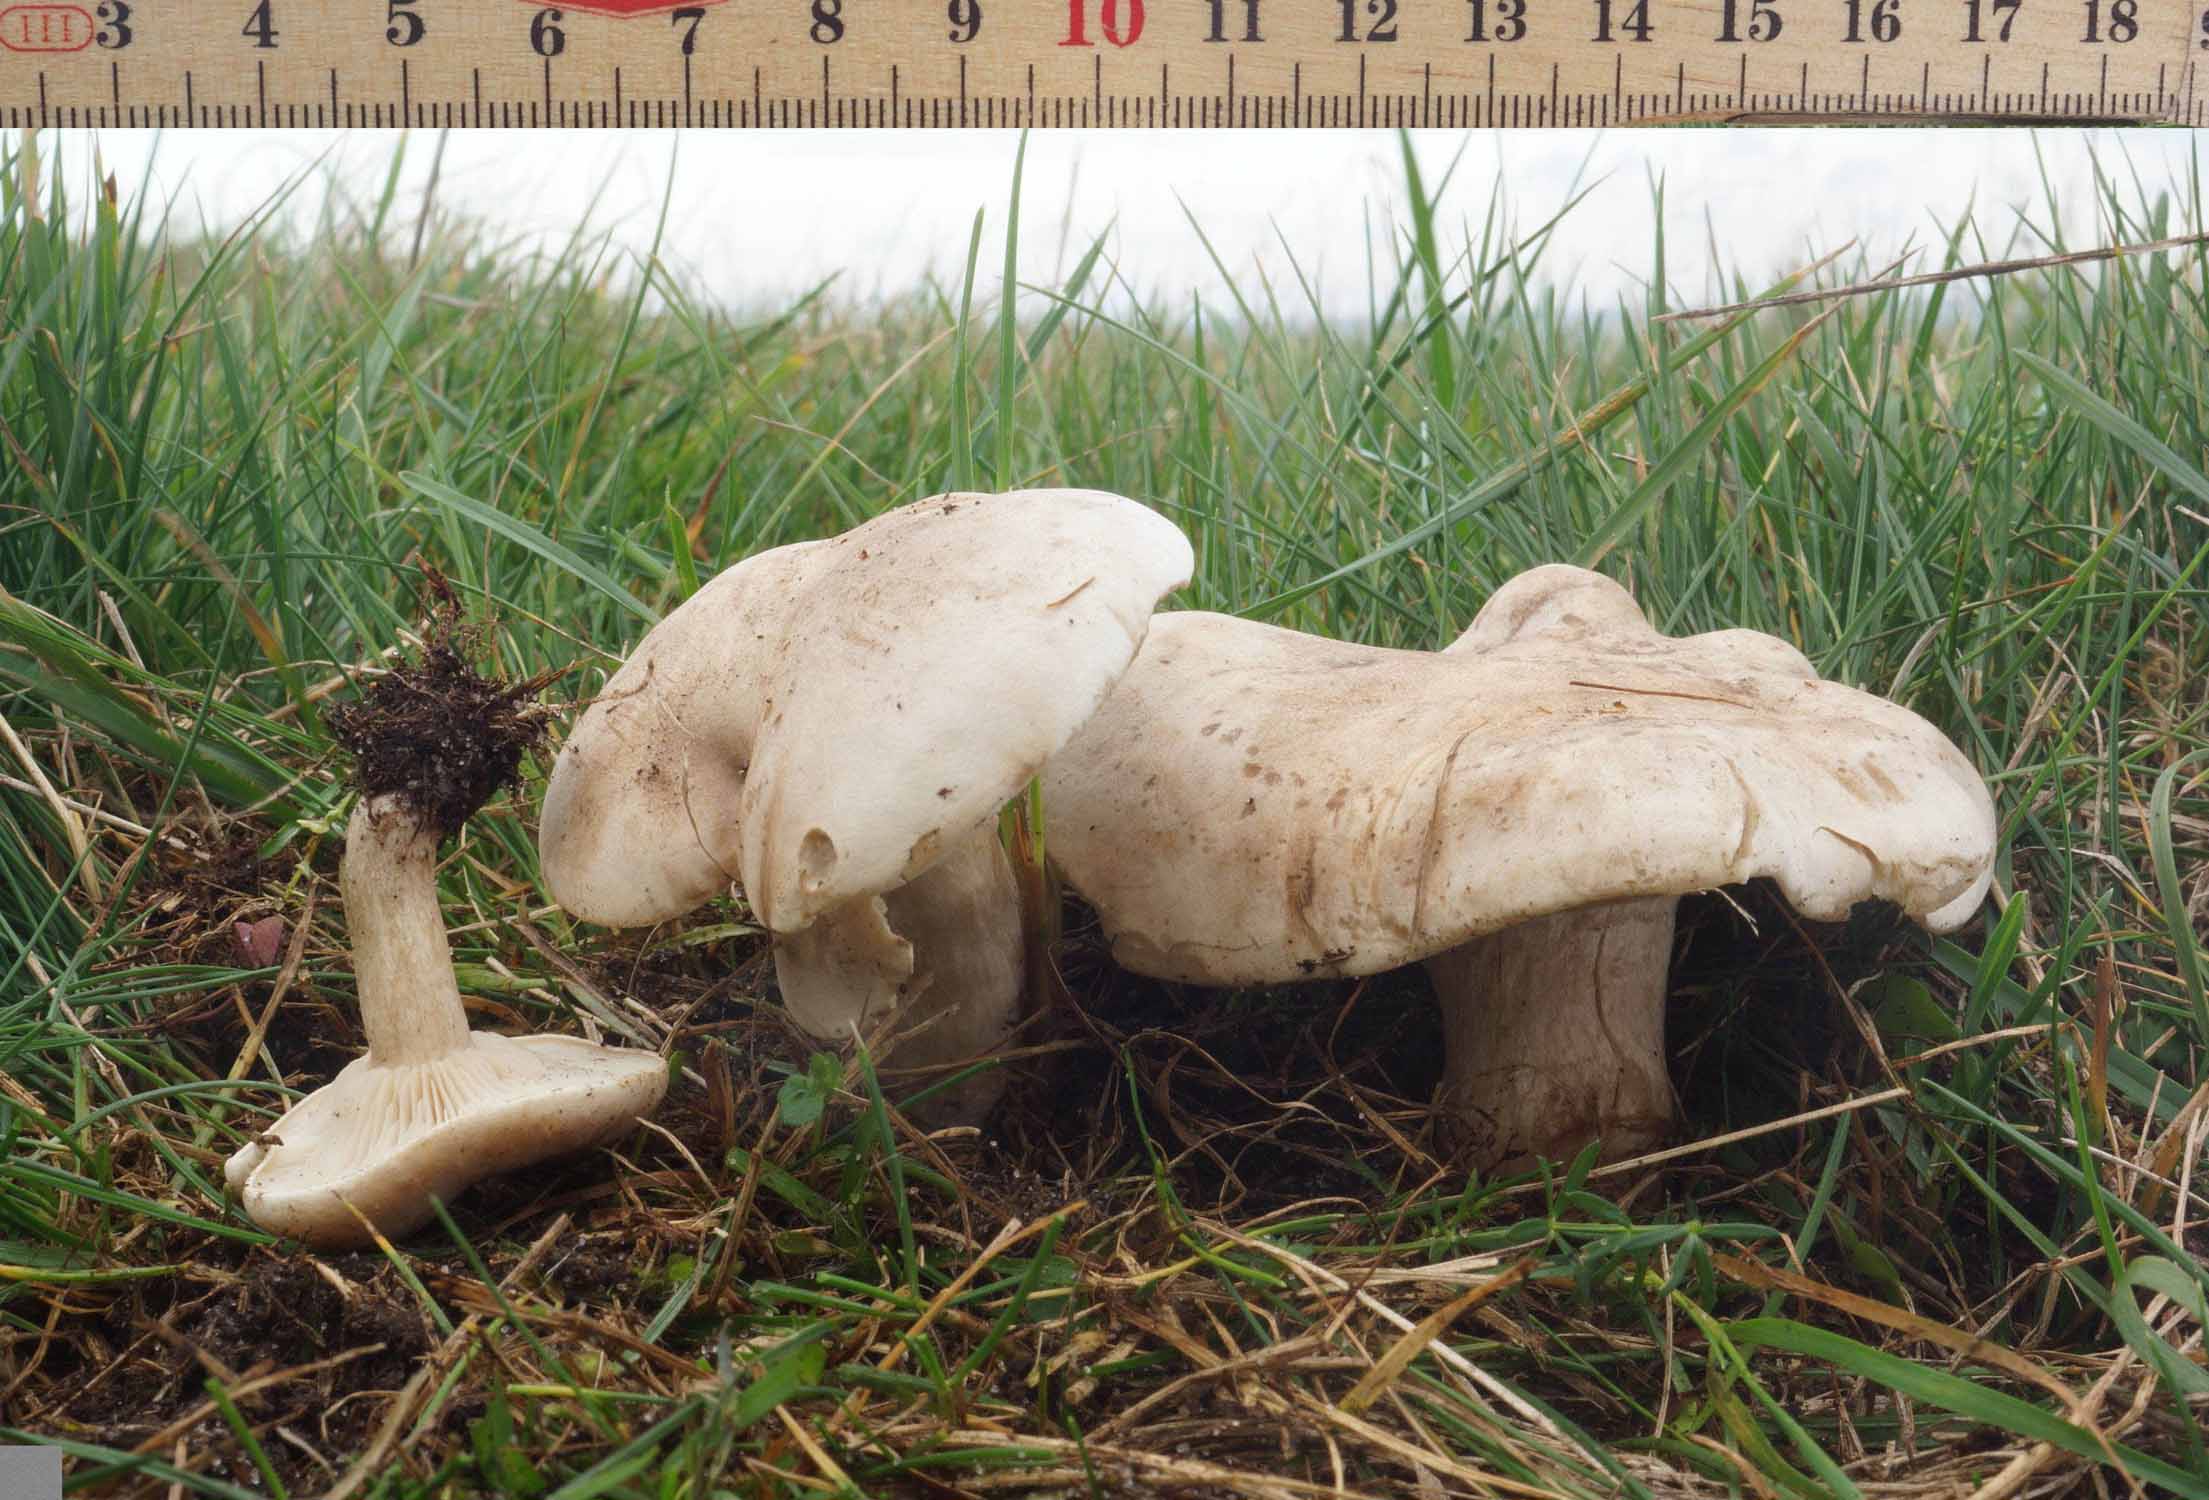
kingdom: Fungi
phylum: Basidiomycota
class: Agaricomycetes
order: Agaricales
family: Tricholomataceae
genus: Lepista
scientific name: Lepista panaeolus
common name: marmoreret hekseringshat
